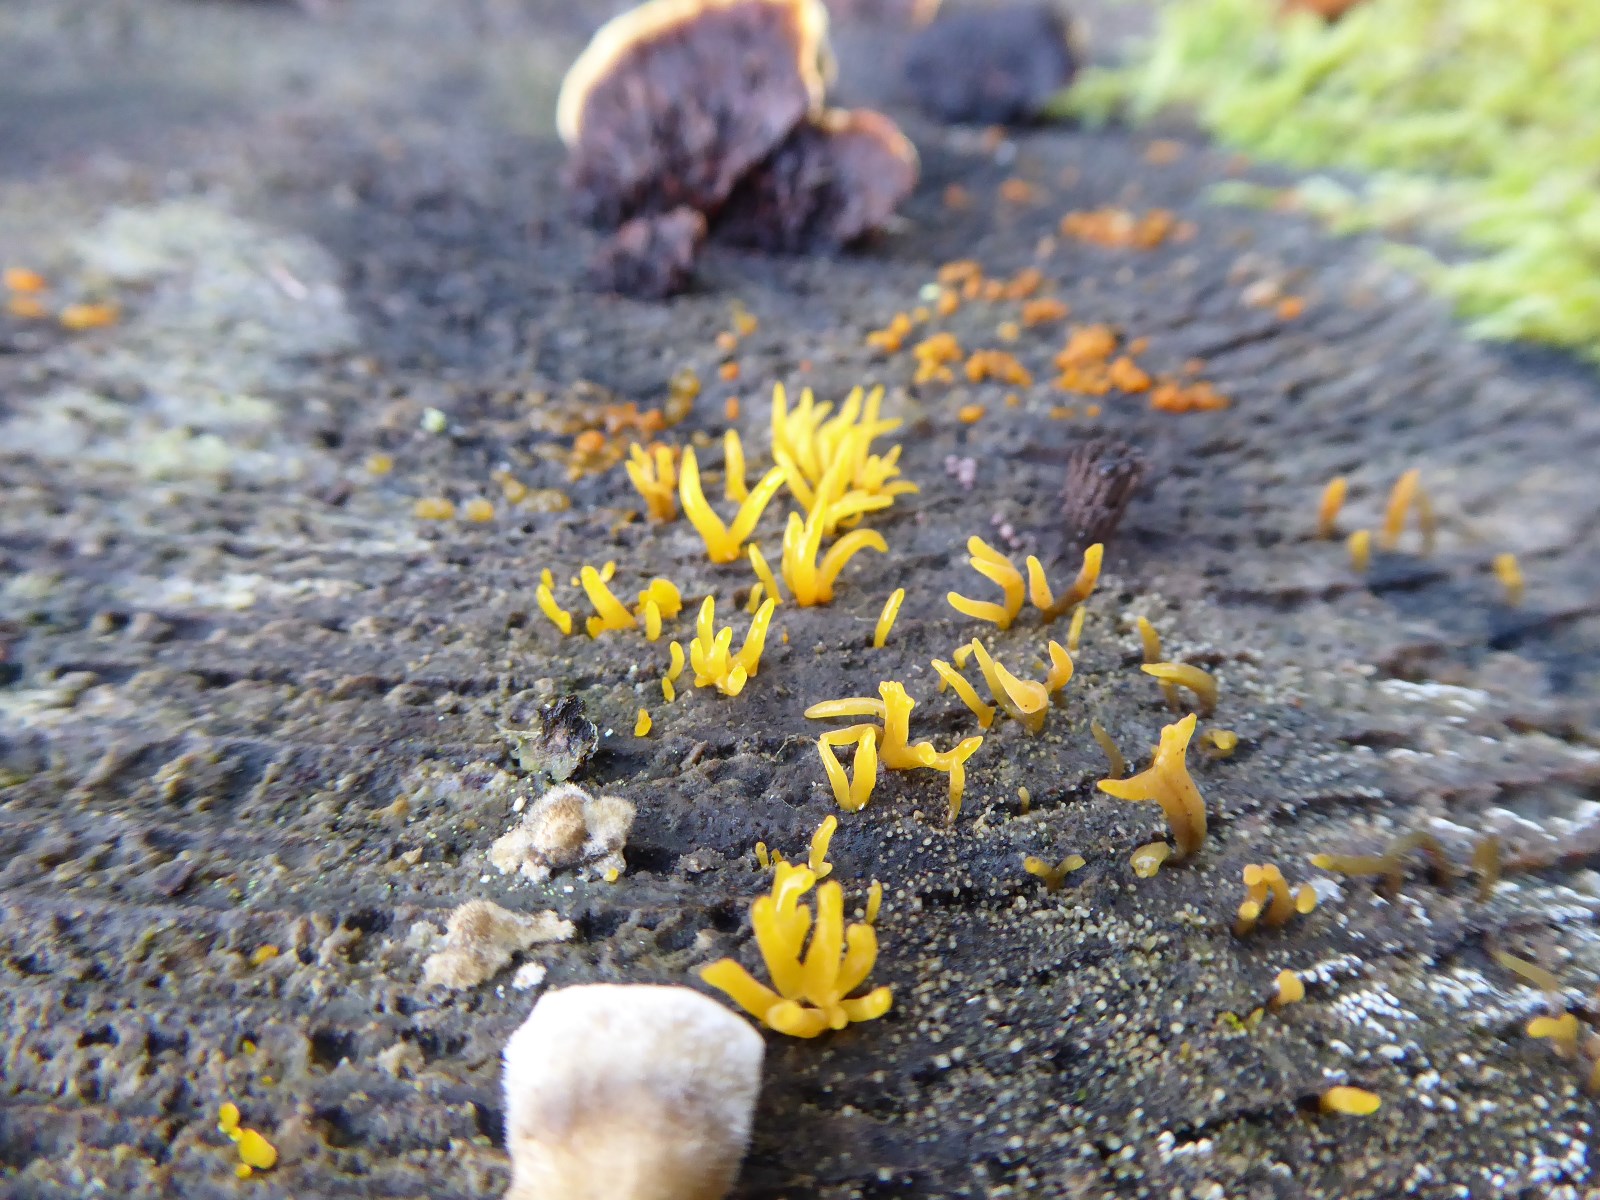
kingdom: Fungi
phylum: Basidiomycota
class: Dacrymycetes
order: Dacrymycetales
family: Dacrymycetaceae
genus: Calocera
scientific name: Calocera furcata
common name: fyrre-guldgaffel
